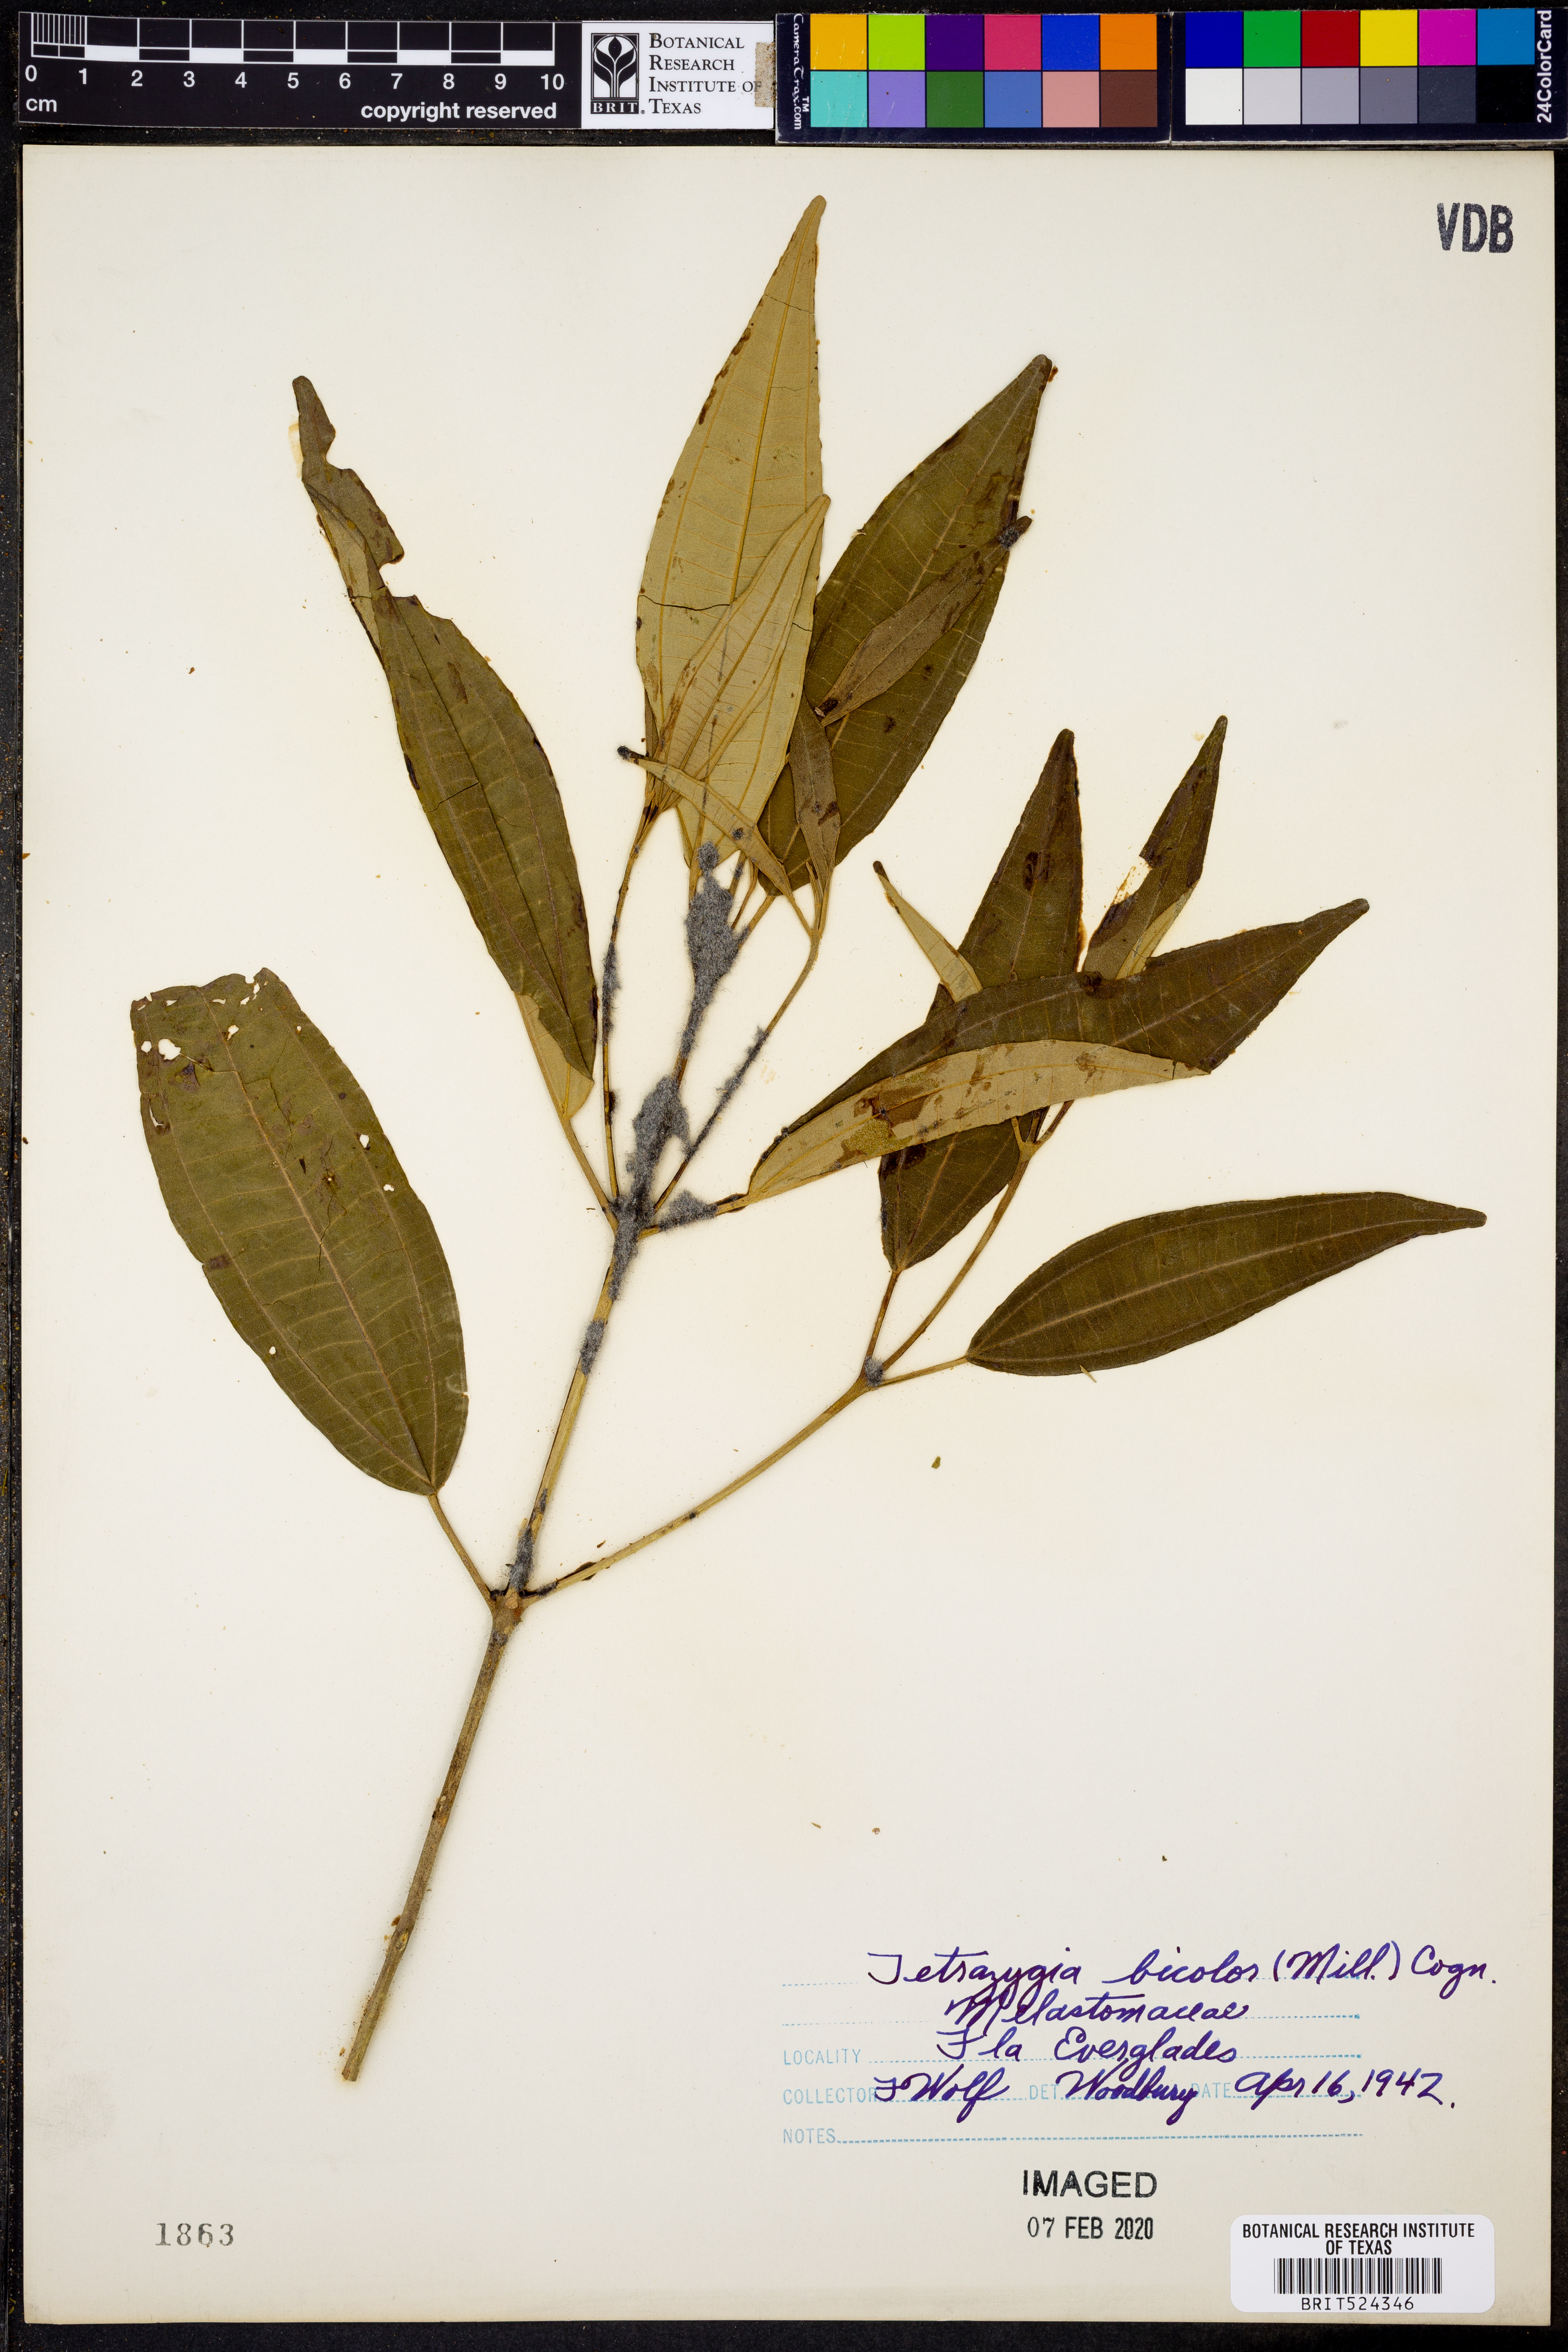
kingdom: Plantae
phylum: Tracheophyta
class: Magnoliopsida
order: Myrtales
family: Melastomataceae
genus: Miconia
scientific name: Miconia bicolor
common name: Johnnyberry
